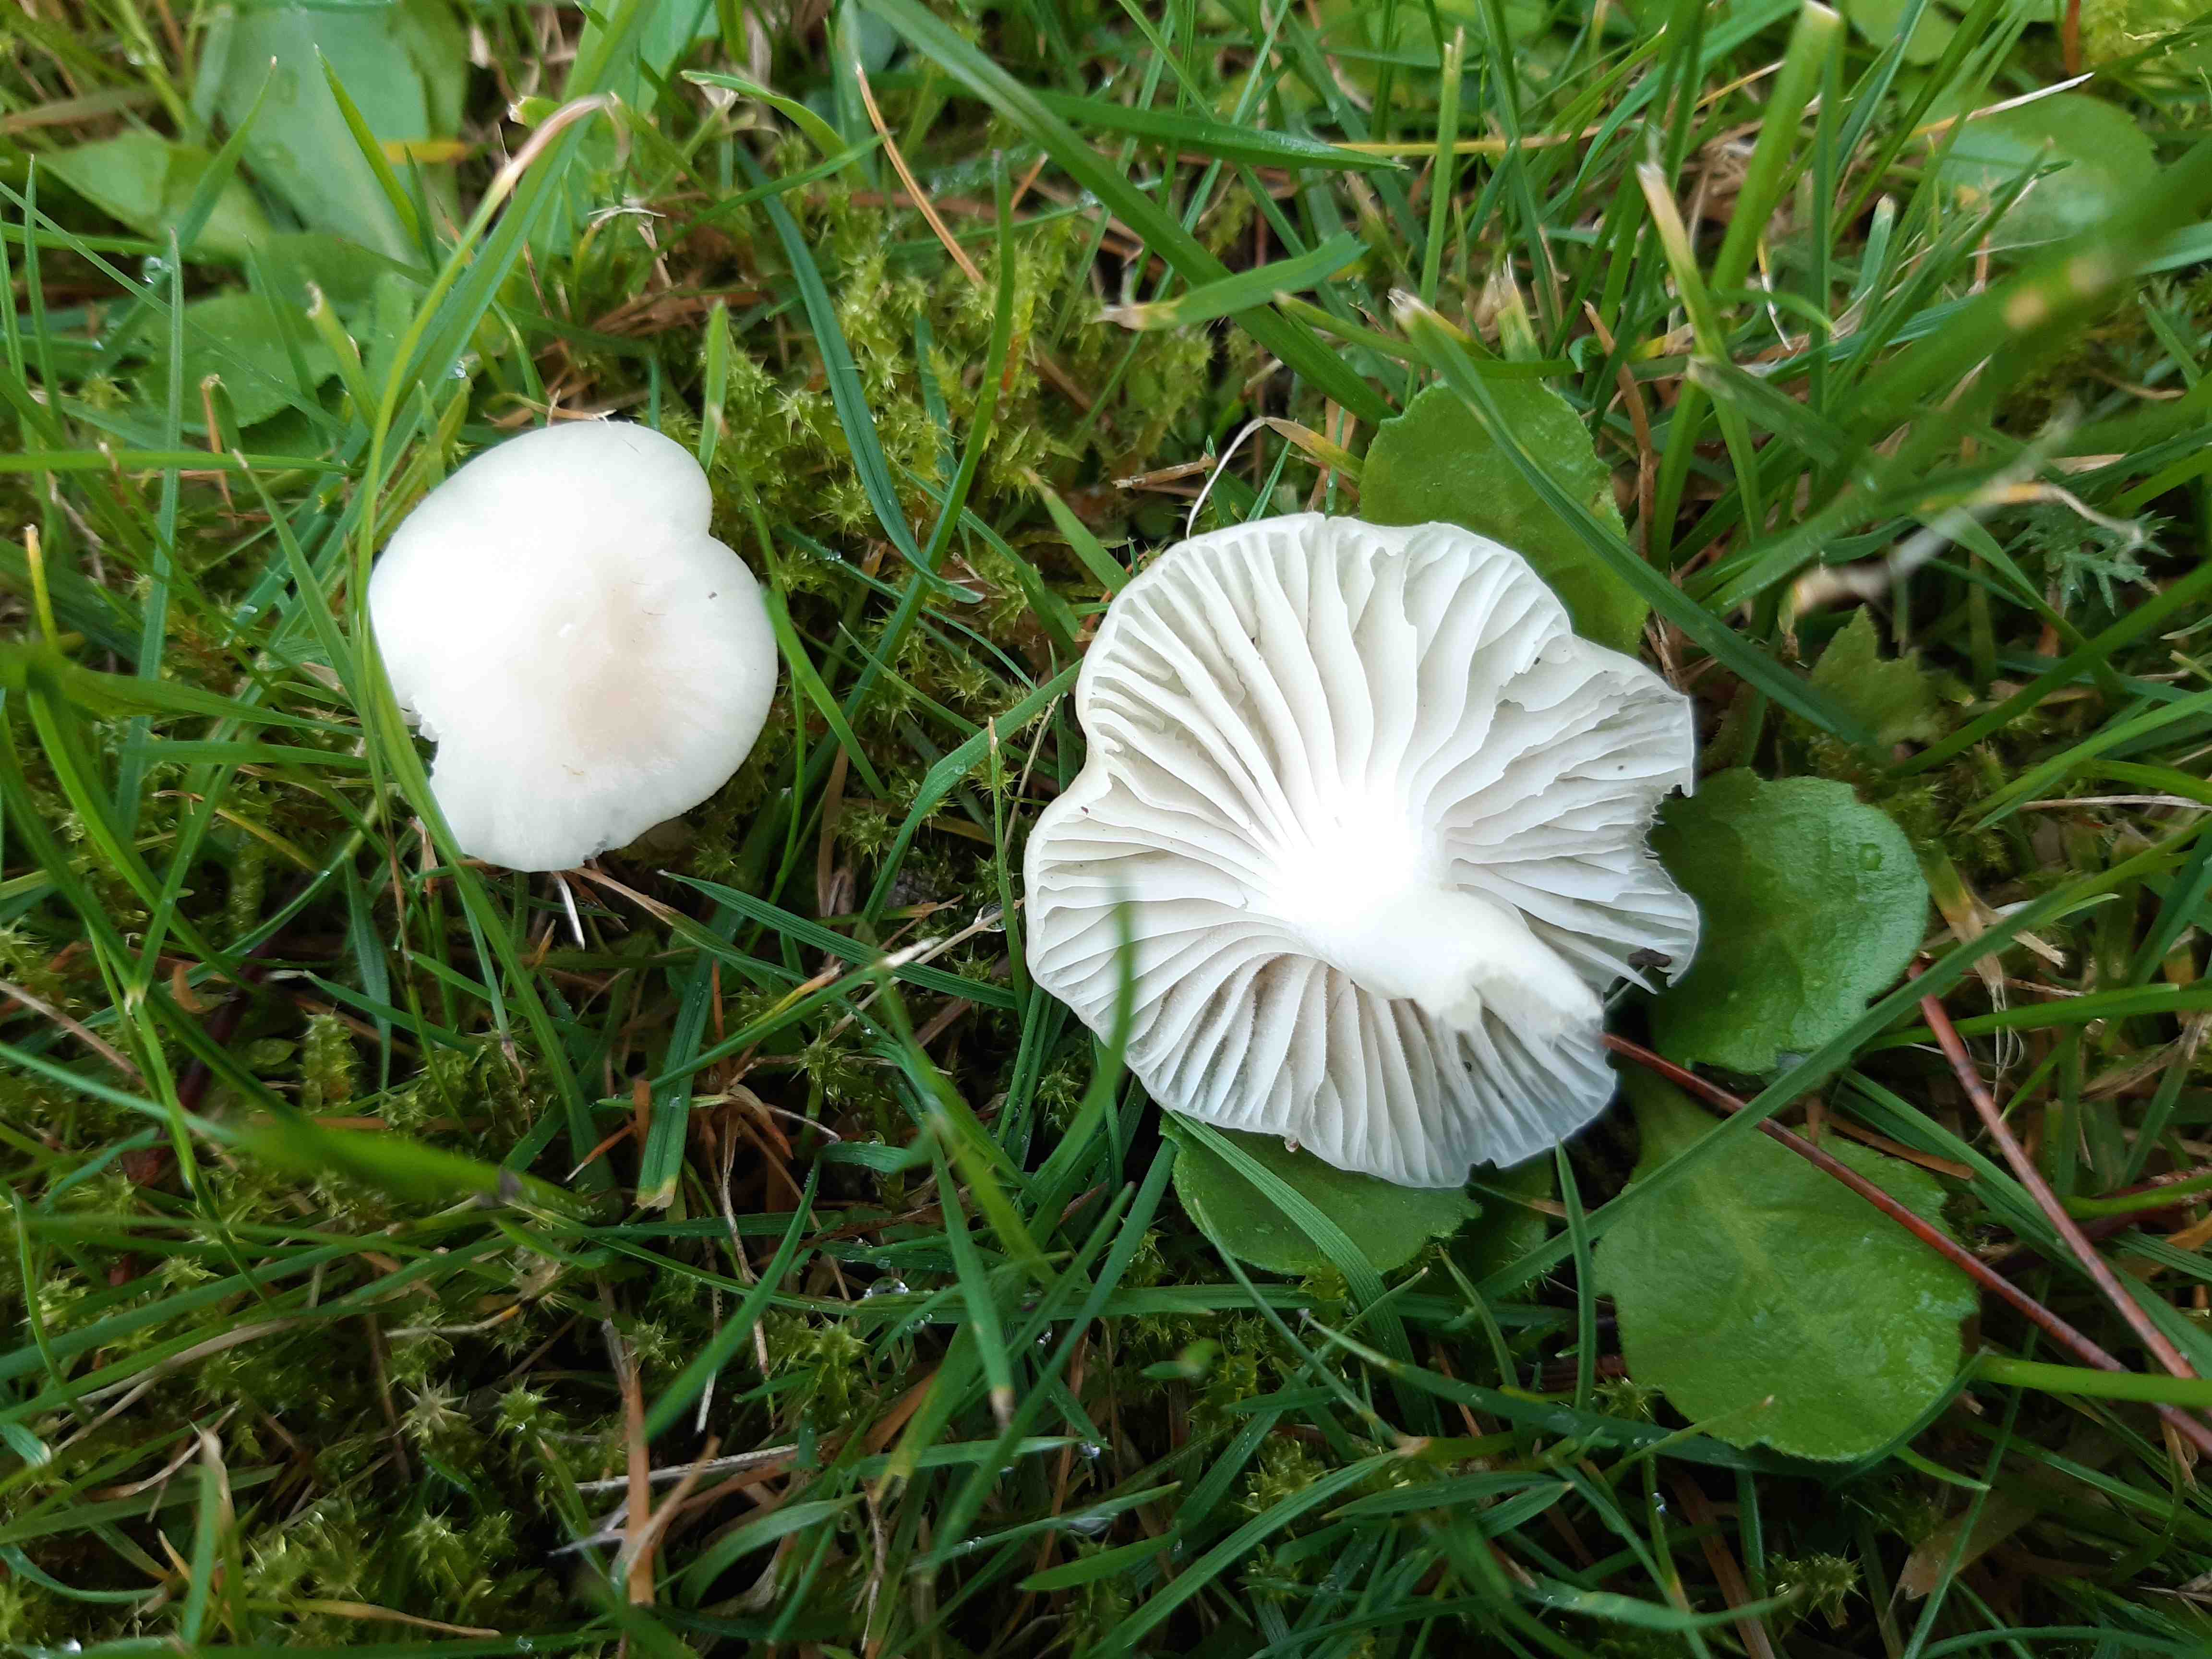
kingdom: Fungi
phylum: Basidiomycota
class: Agaricomycetes
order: Agaricales
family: Hygrophoraceae
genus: Cuphophyllus
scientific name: Cuphophyllus virgineus
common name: snehvid vokshat
